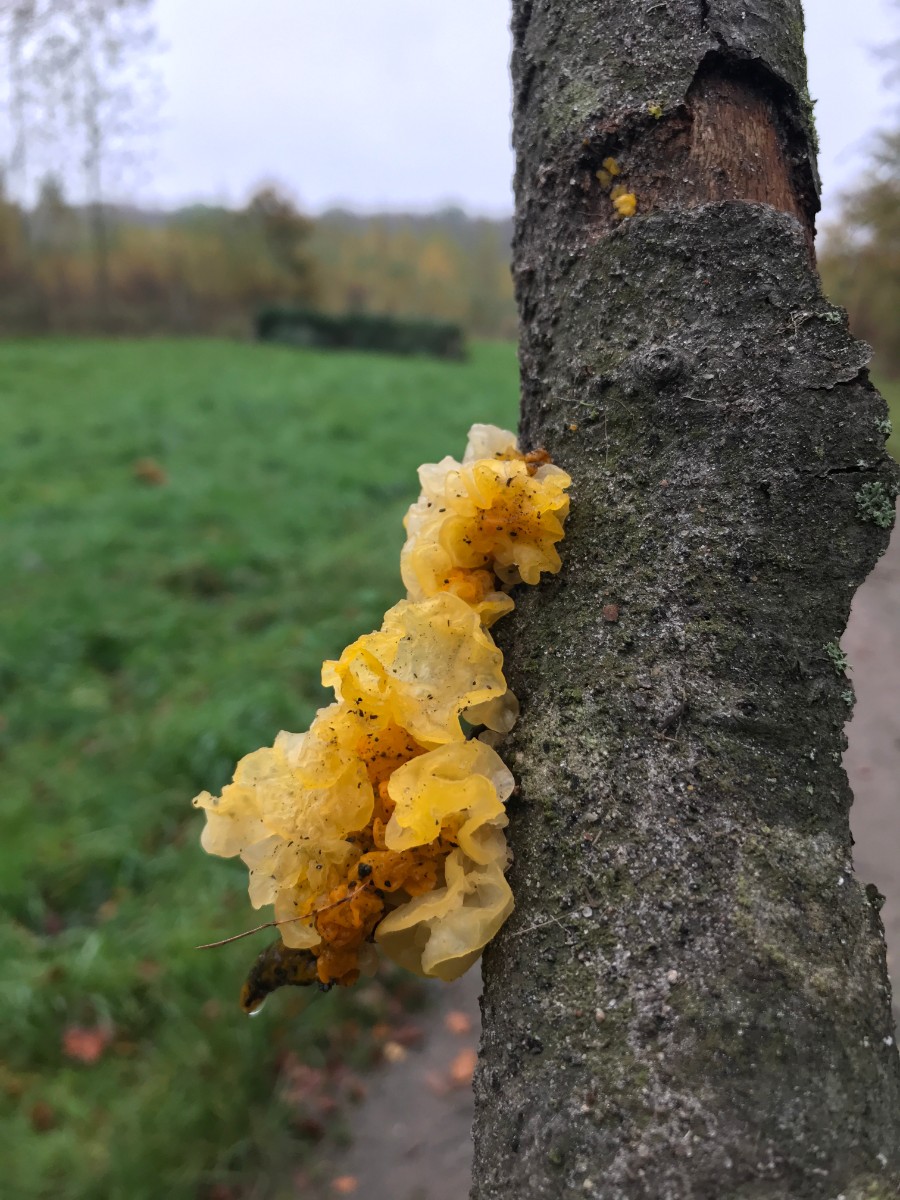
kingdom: Fungi
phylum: Basidiomycota
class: Tremellomycetes
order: Tremellales
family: Tremellaceae
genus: Tremella
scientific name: Tremella mesenterica
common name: gul bævresvamp
